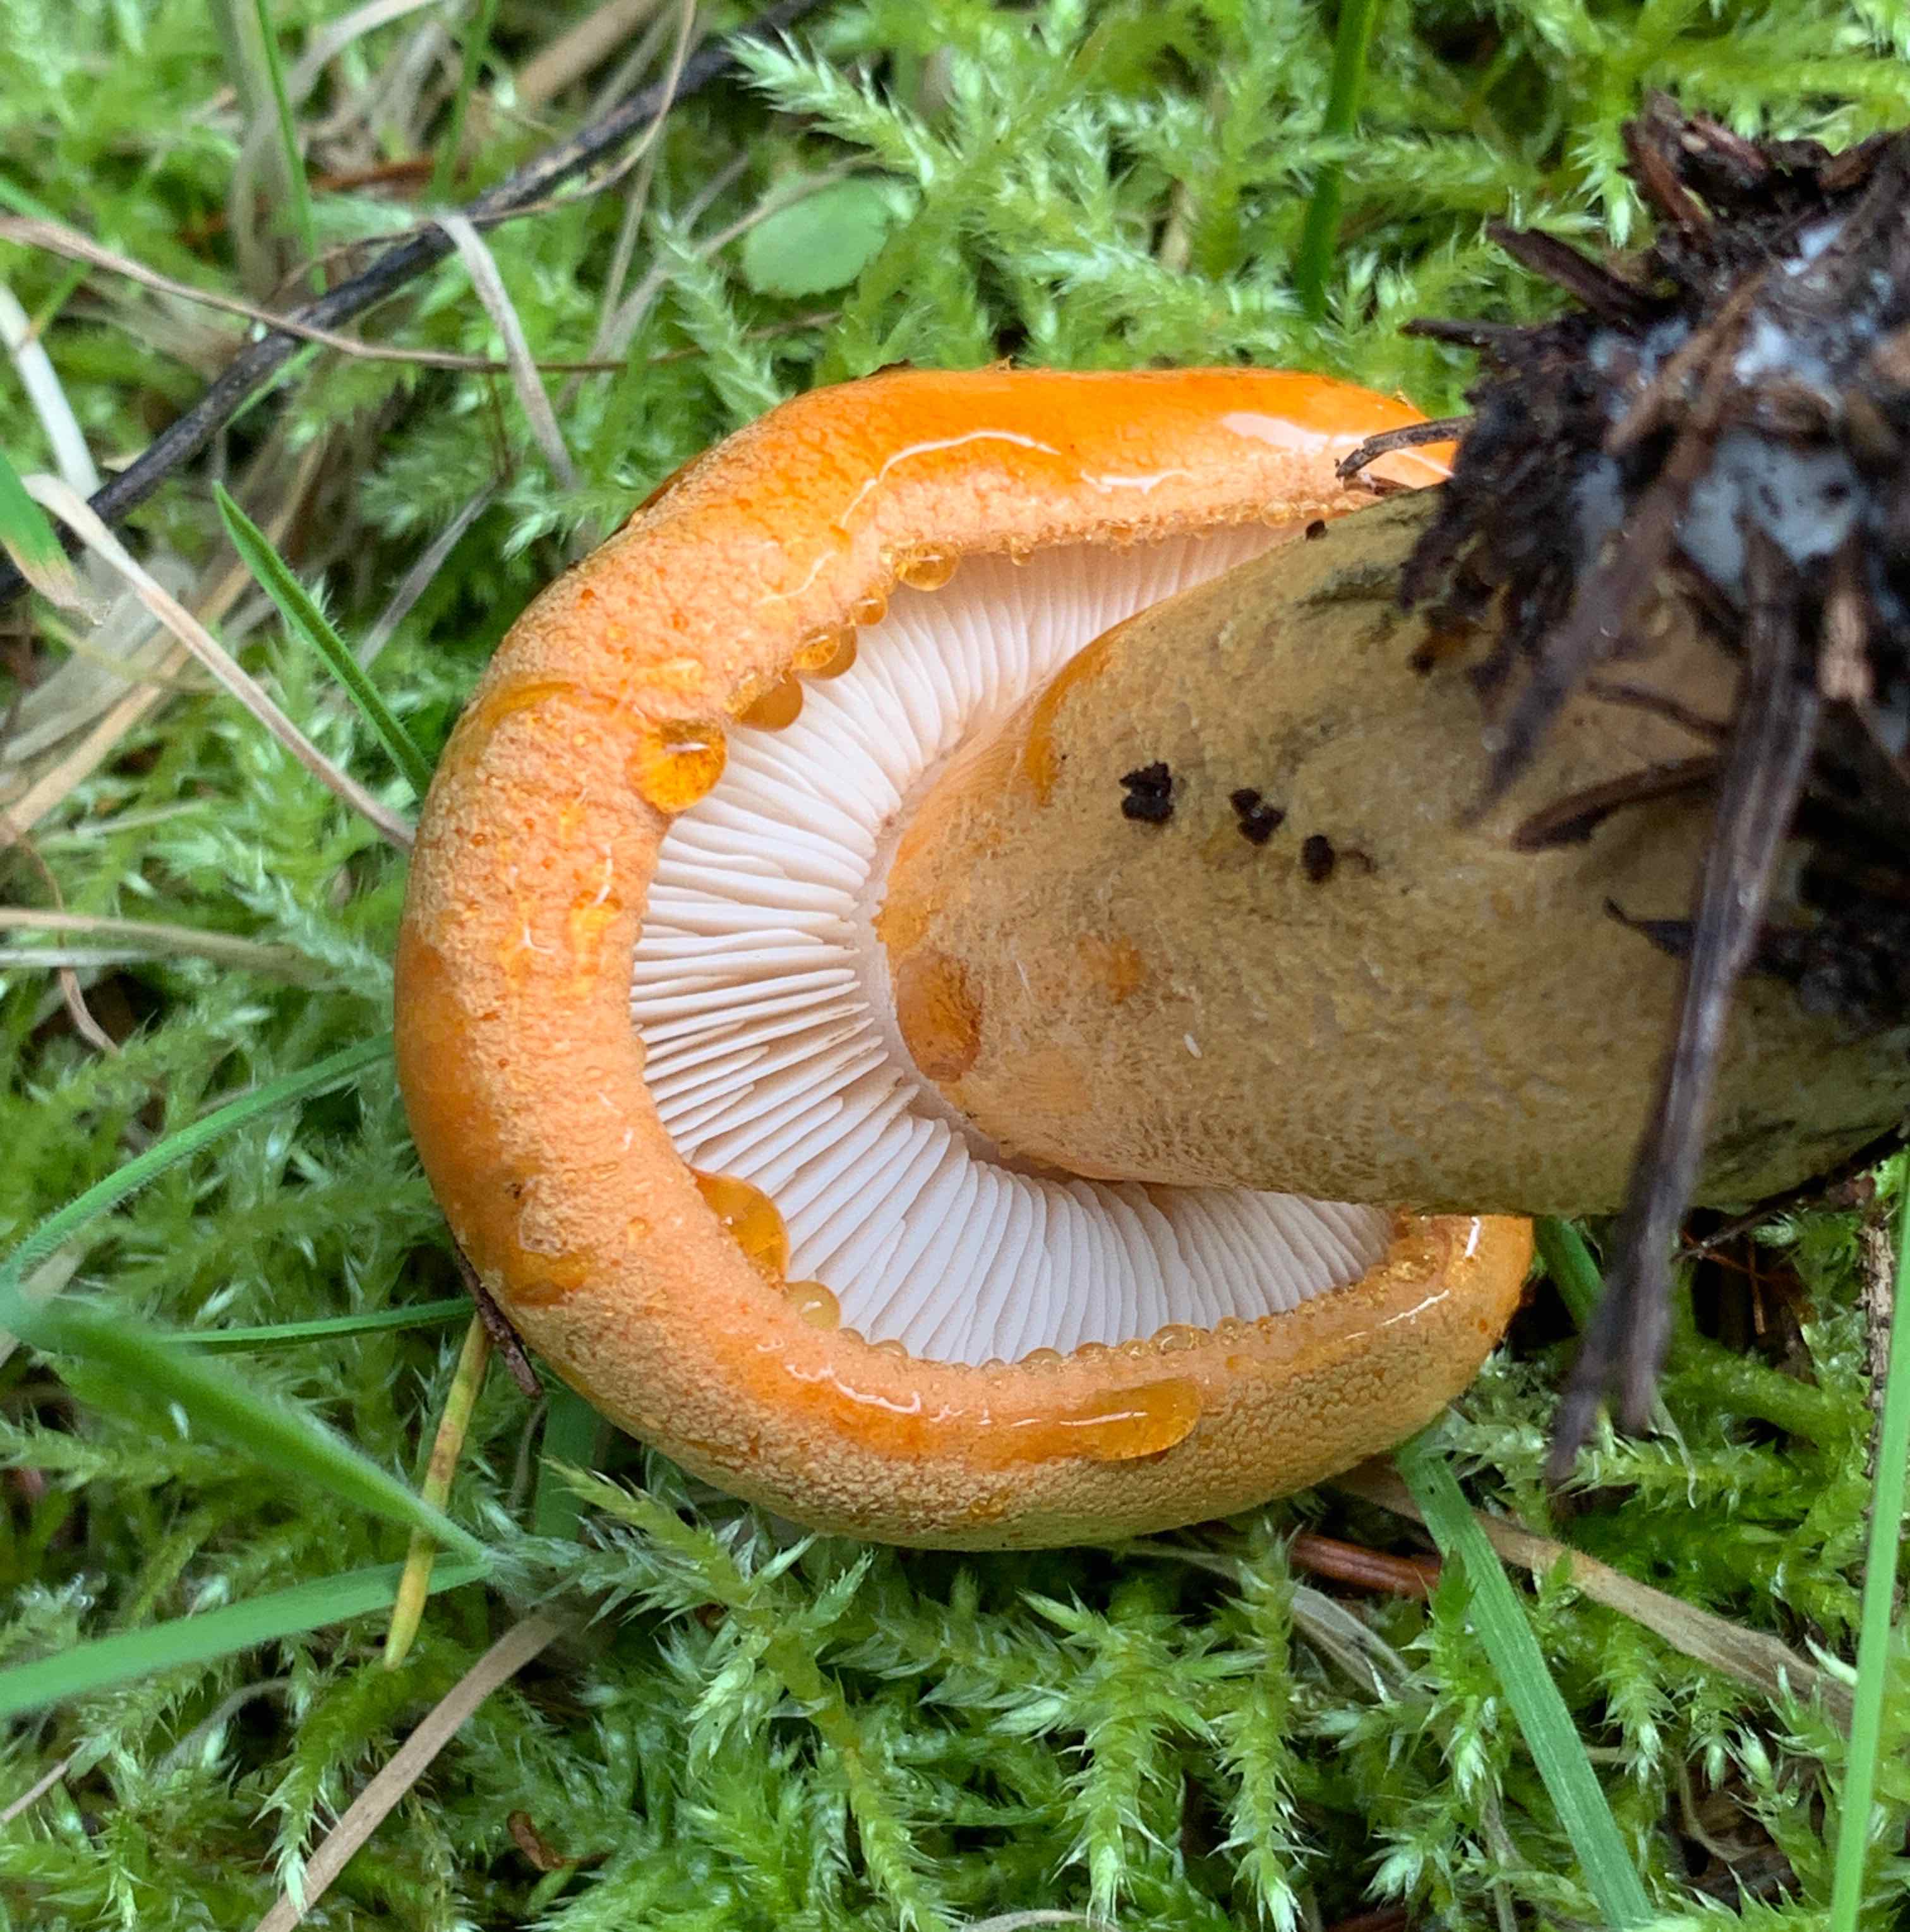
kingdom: Fungi
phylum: Basidiomycota
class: Agaricomycetes
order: Agaricales
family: Tricholomataceae
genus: Tricholoma
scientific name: Tricholoma aurantium
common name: orangegul ridderhat
